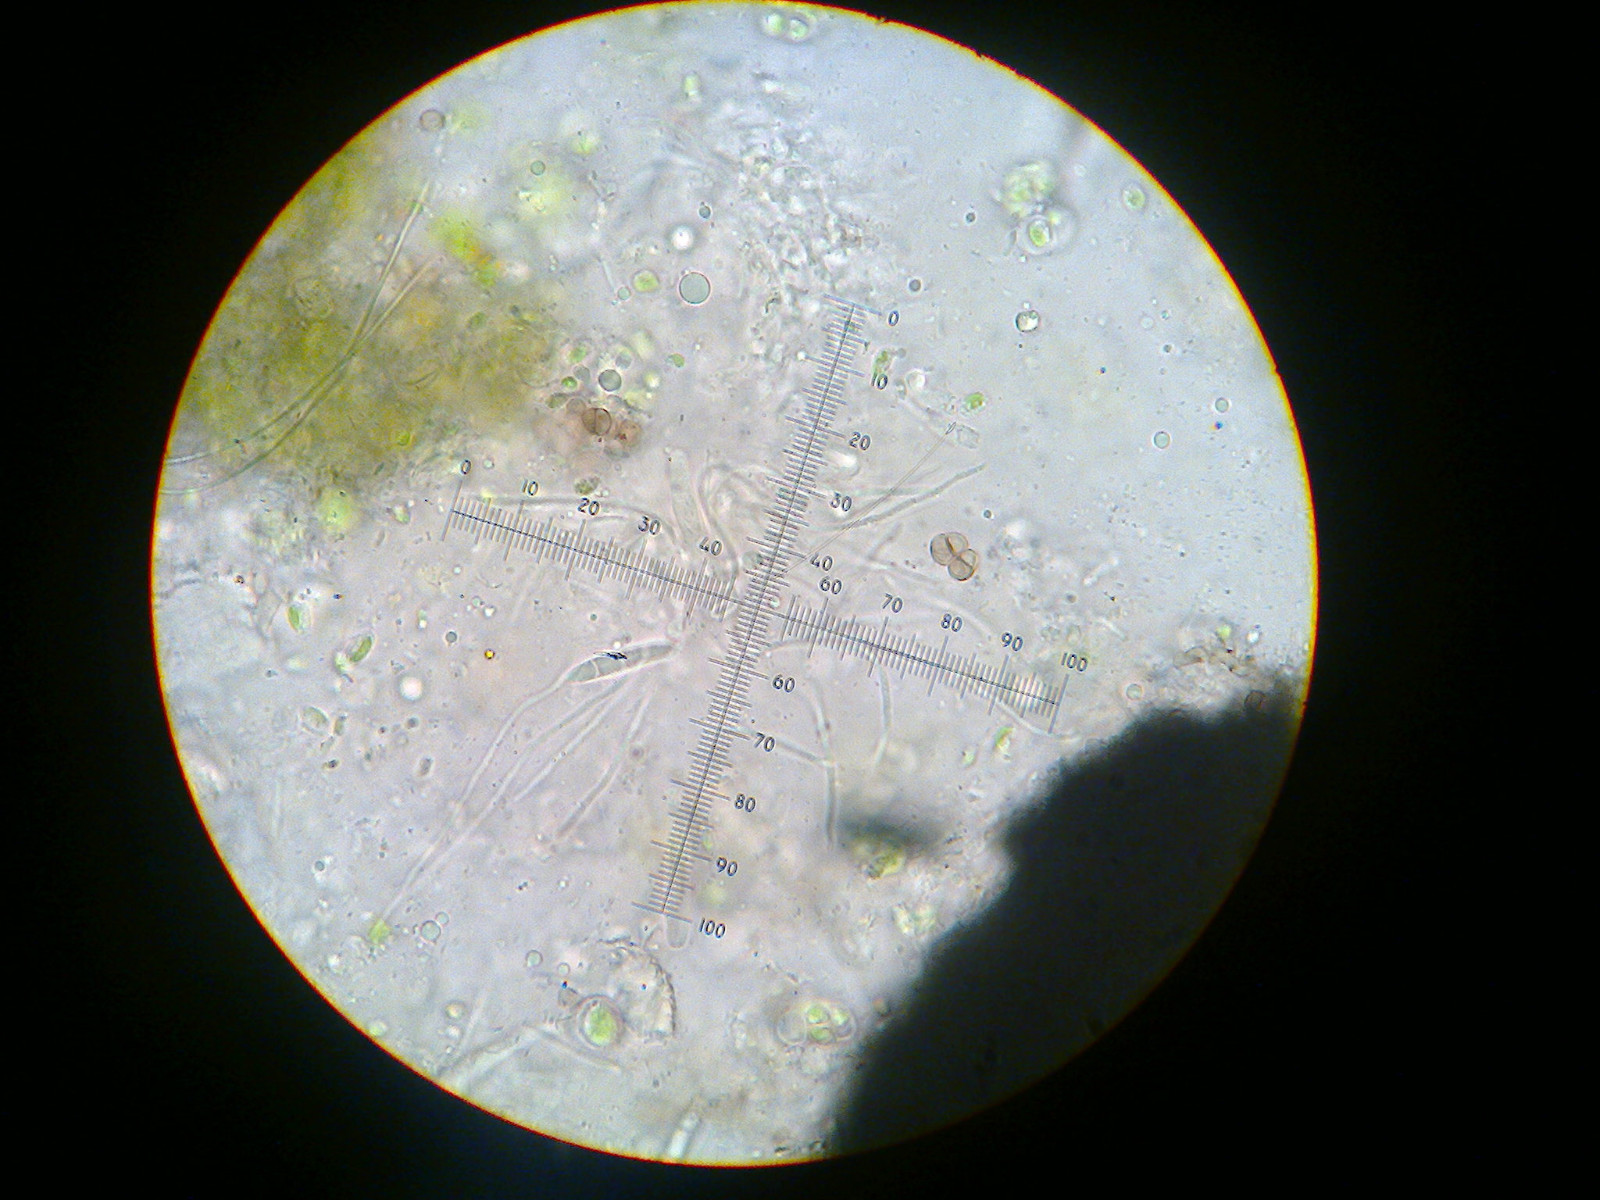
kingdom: Fungi
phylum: Ascomycota
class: Lecanoromycetes
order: Ostropales
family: Porinaceae
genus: Pseudosagedia
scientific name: Pseudosagedia aenea
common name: grønlig porina
